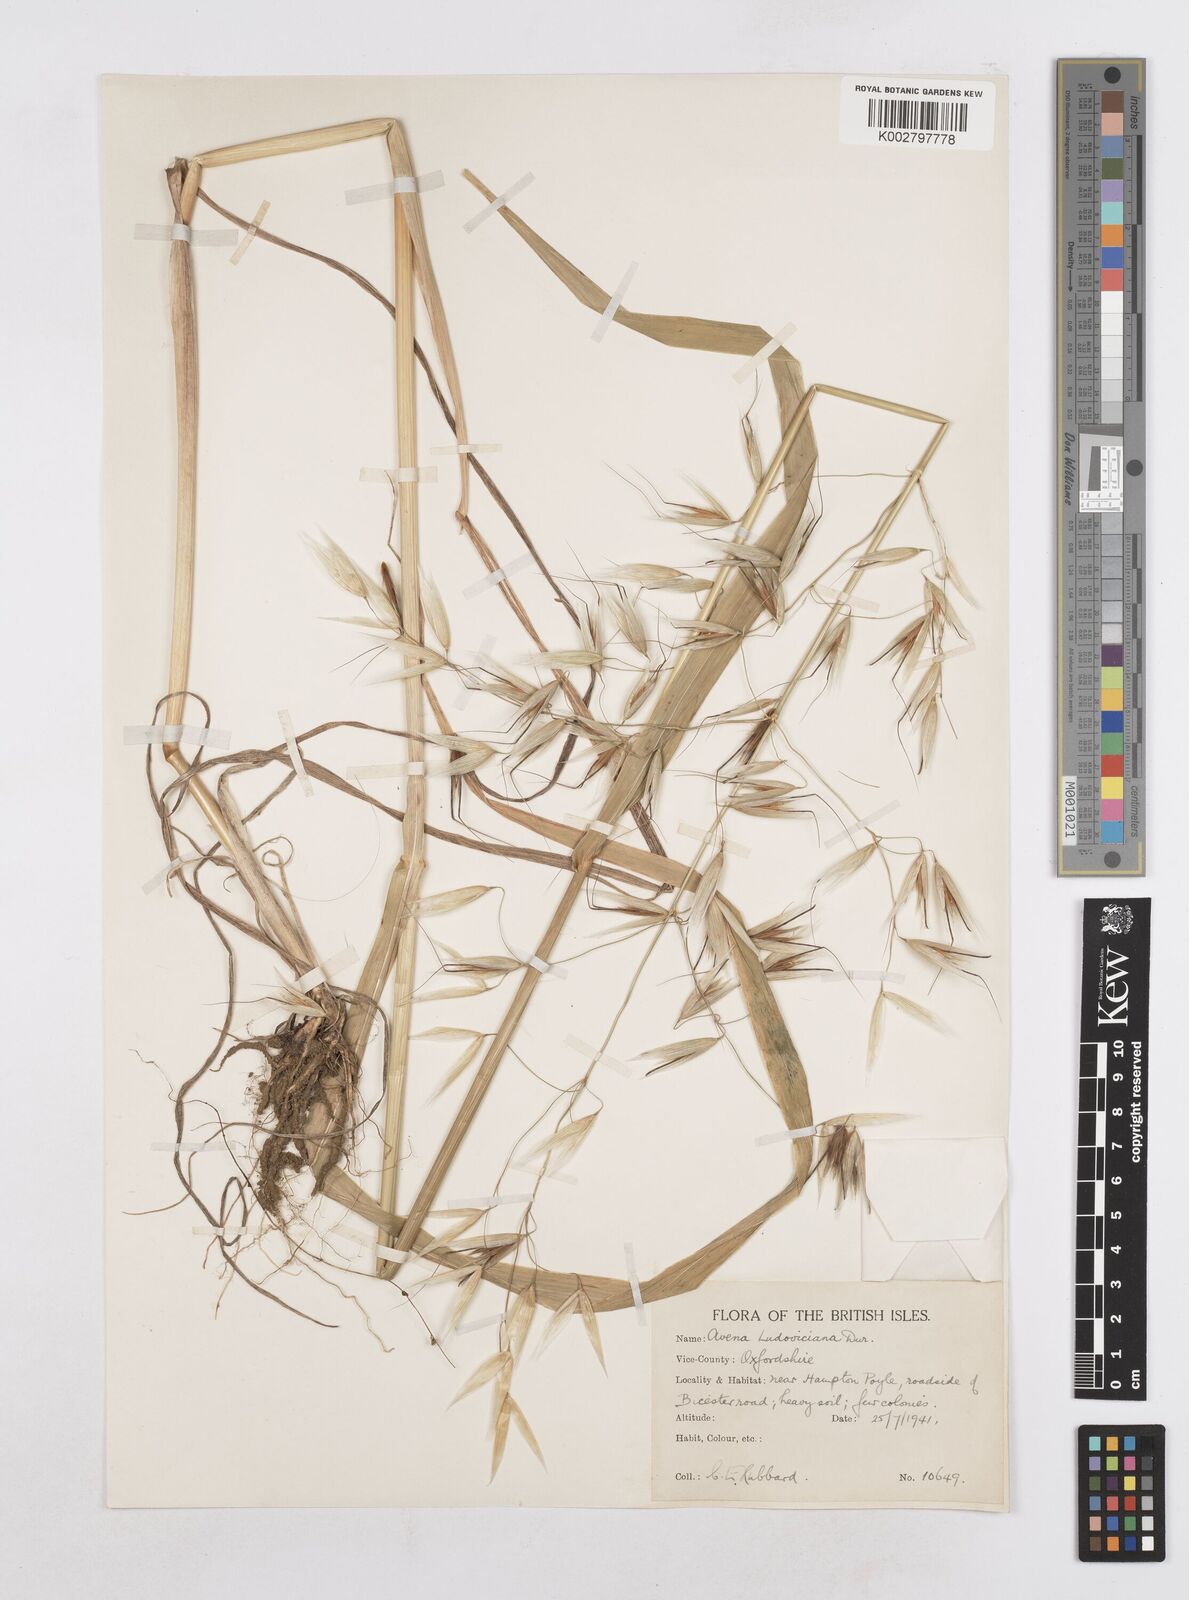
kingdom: Plantae
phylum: Tracheophyta
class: Liliopsida
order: Poales
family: Poaceae
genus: Avena
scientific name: Avena sterilis
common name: Animated oat
